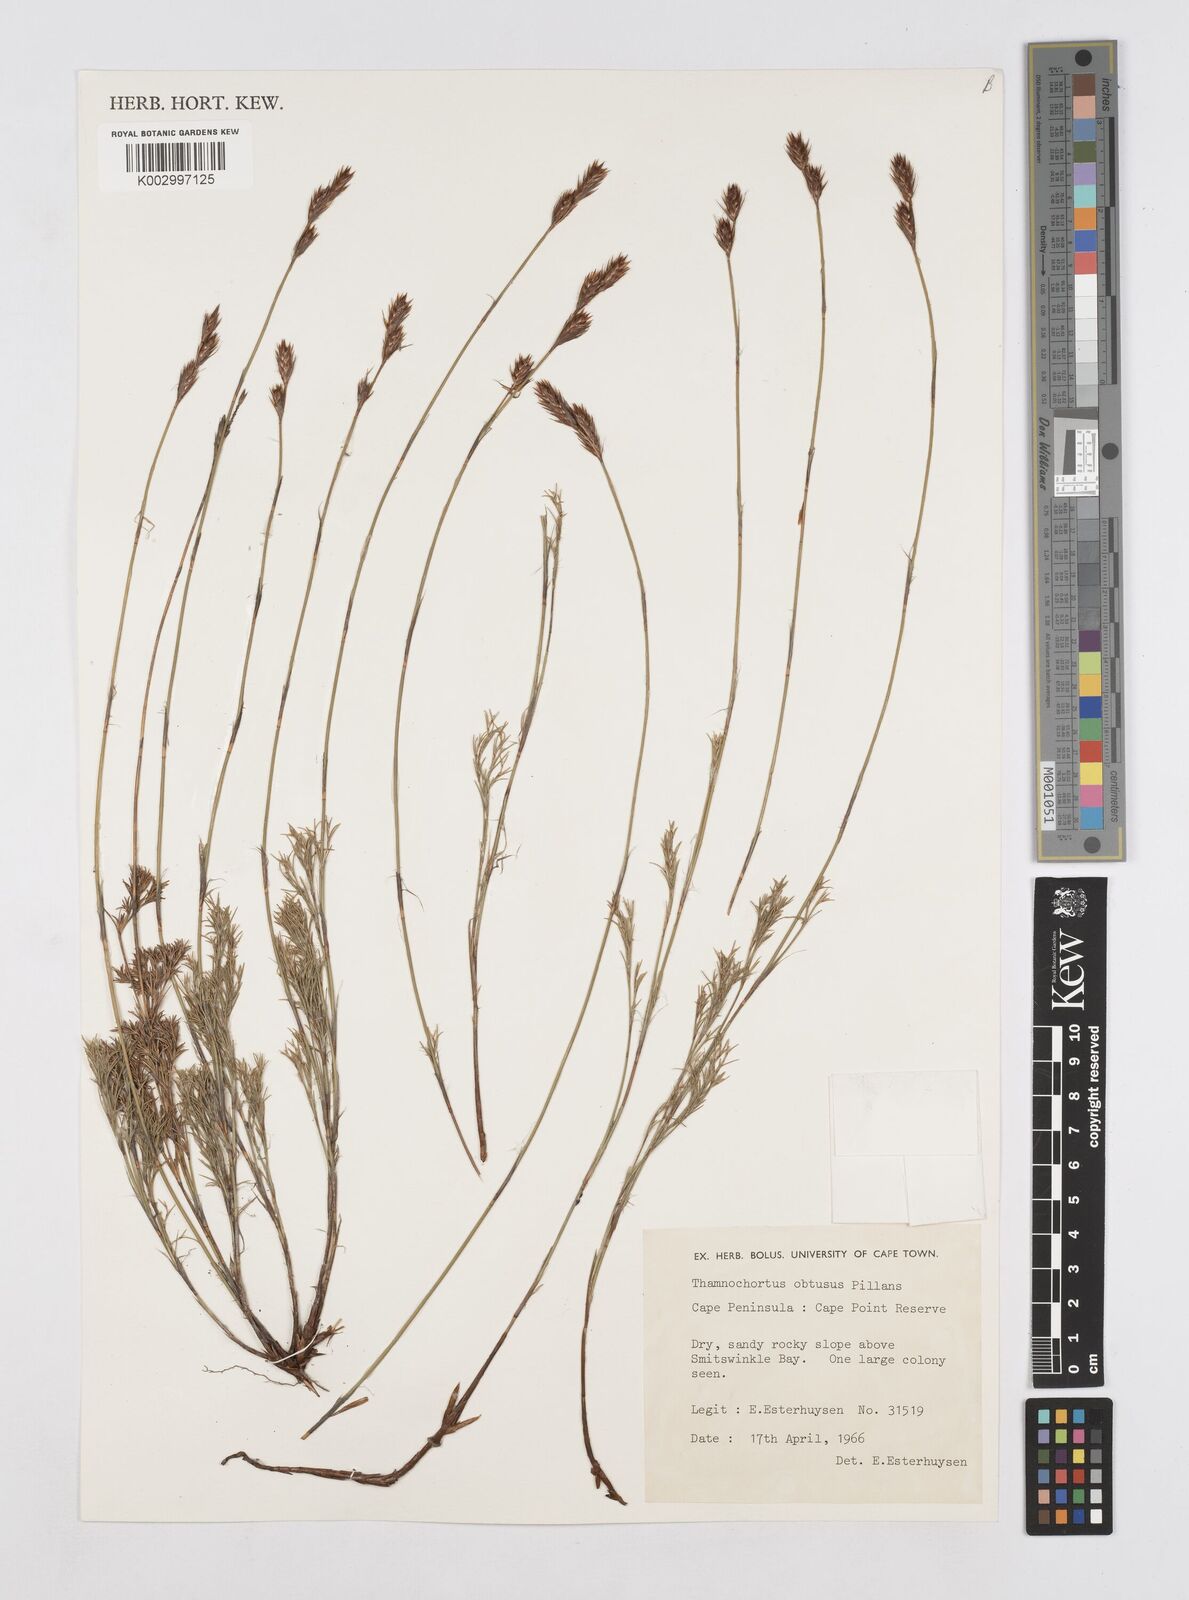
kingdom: Plantae
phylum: Tracheophyta
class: Liliopsida
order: Poales
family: Restionaceae
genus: Thamnochortus
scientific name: Thamnochortus obtusus
